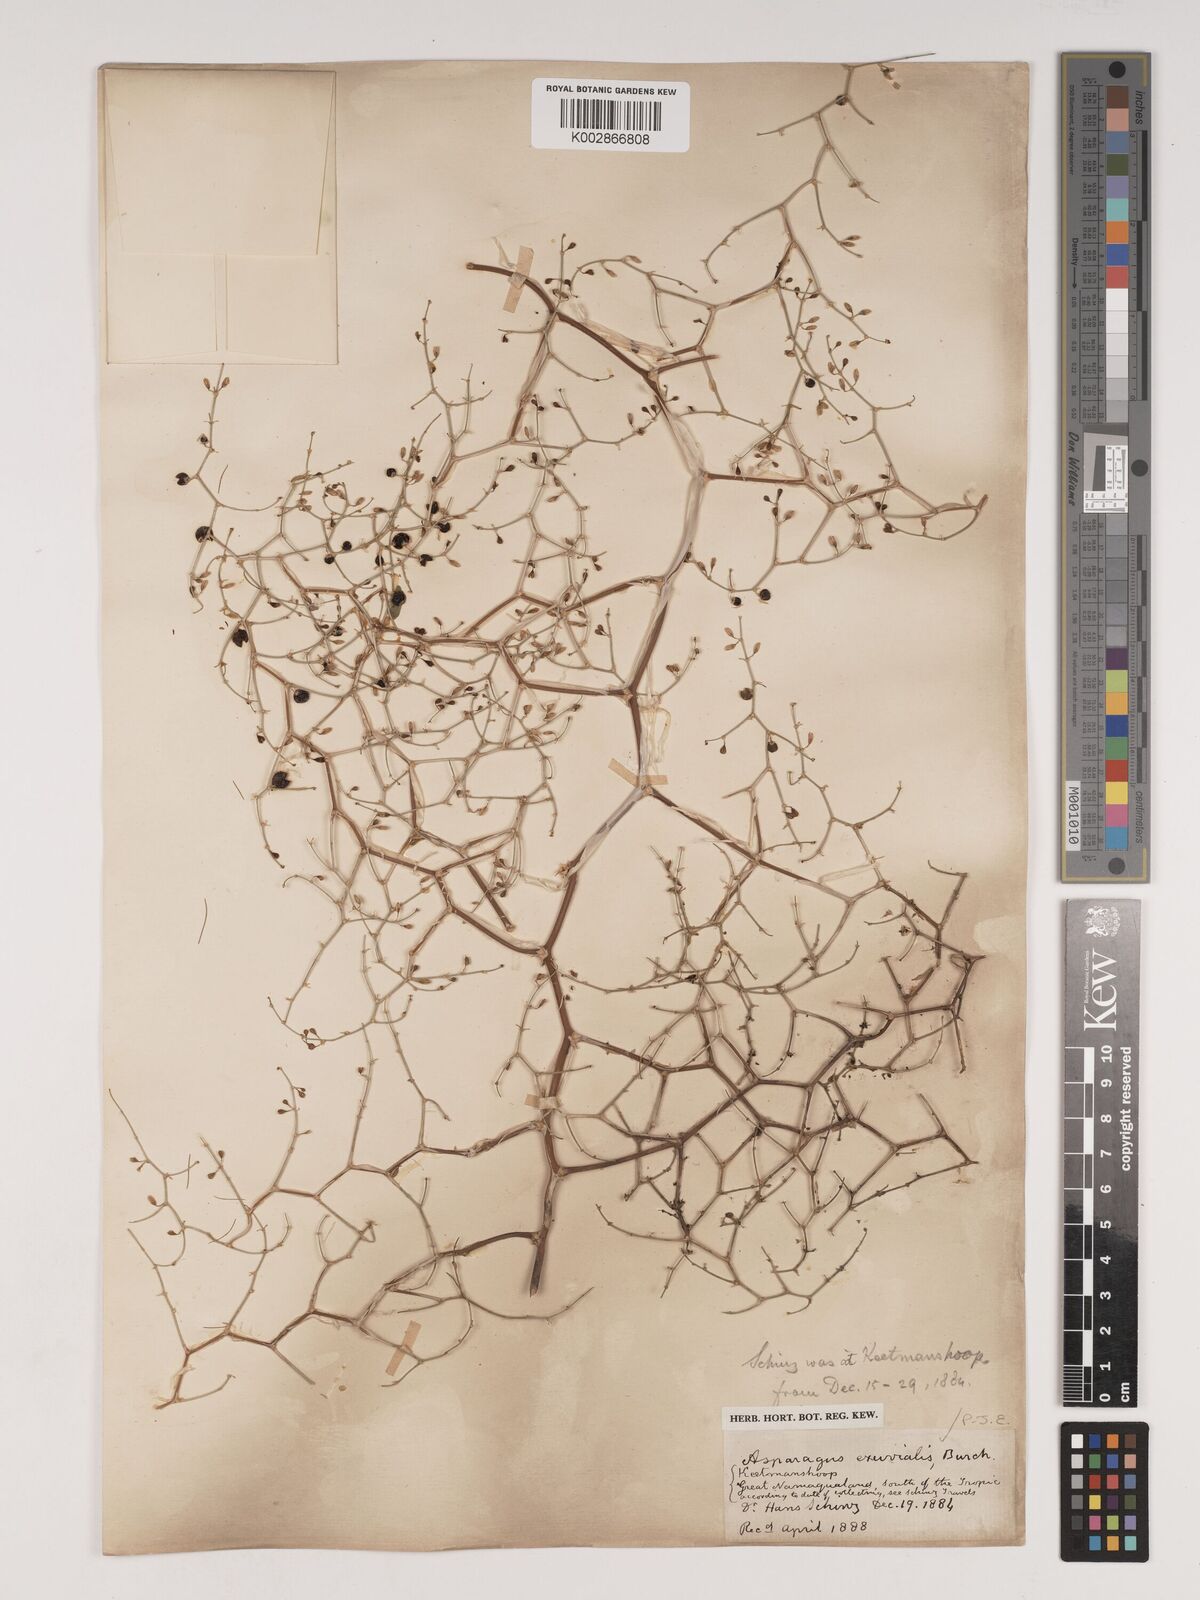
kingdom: Plantae
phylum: Tracheophyta
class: Liliopsida
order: Asparagales
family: Asparagaceae
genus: Asparagus
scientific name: Asparagus exuvialis
